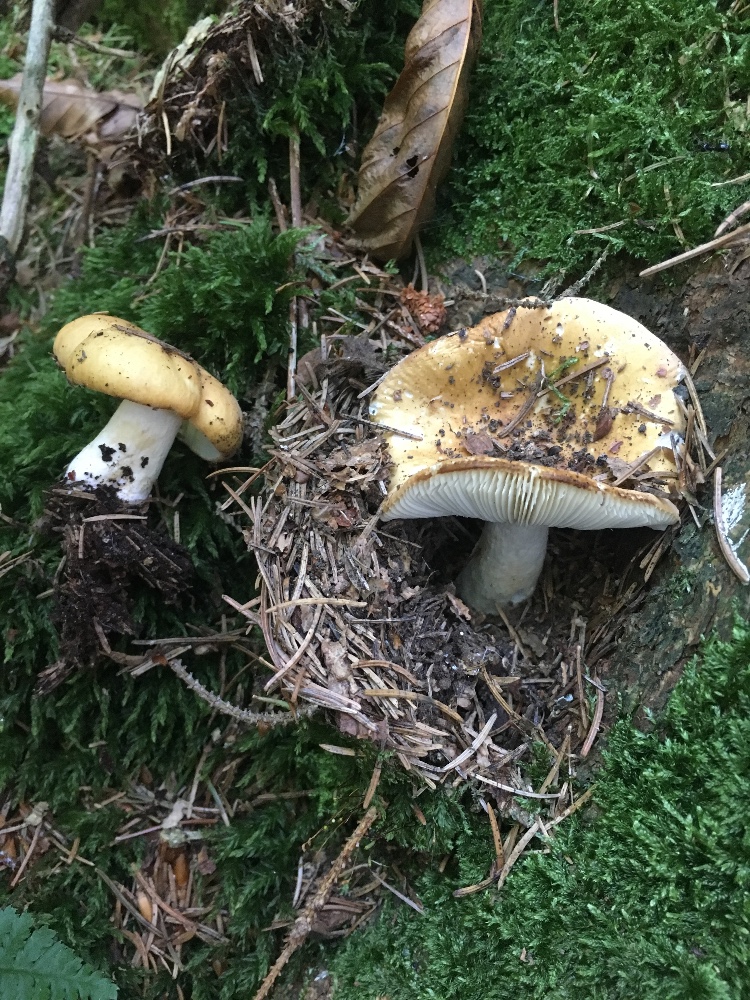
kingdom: Fungi
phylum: Basidiomycota
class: Agaricomycetes
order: Russulales
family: Russulaceae
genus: Russula
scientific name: Russula ochroleuca
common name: okkergul skørhat
